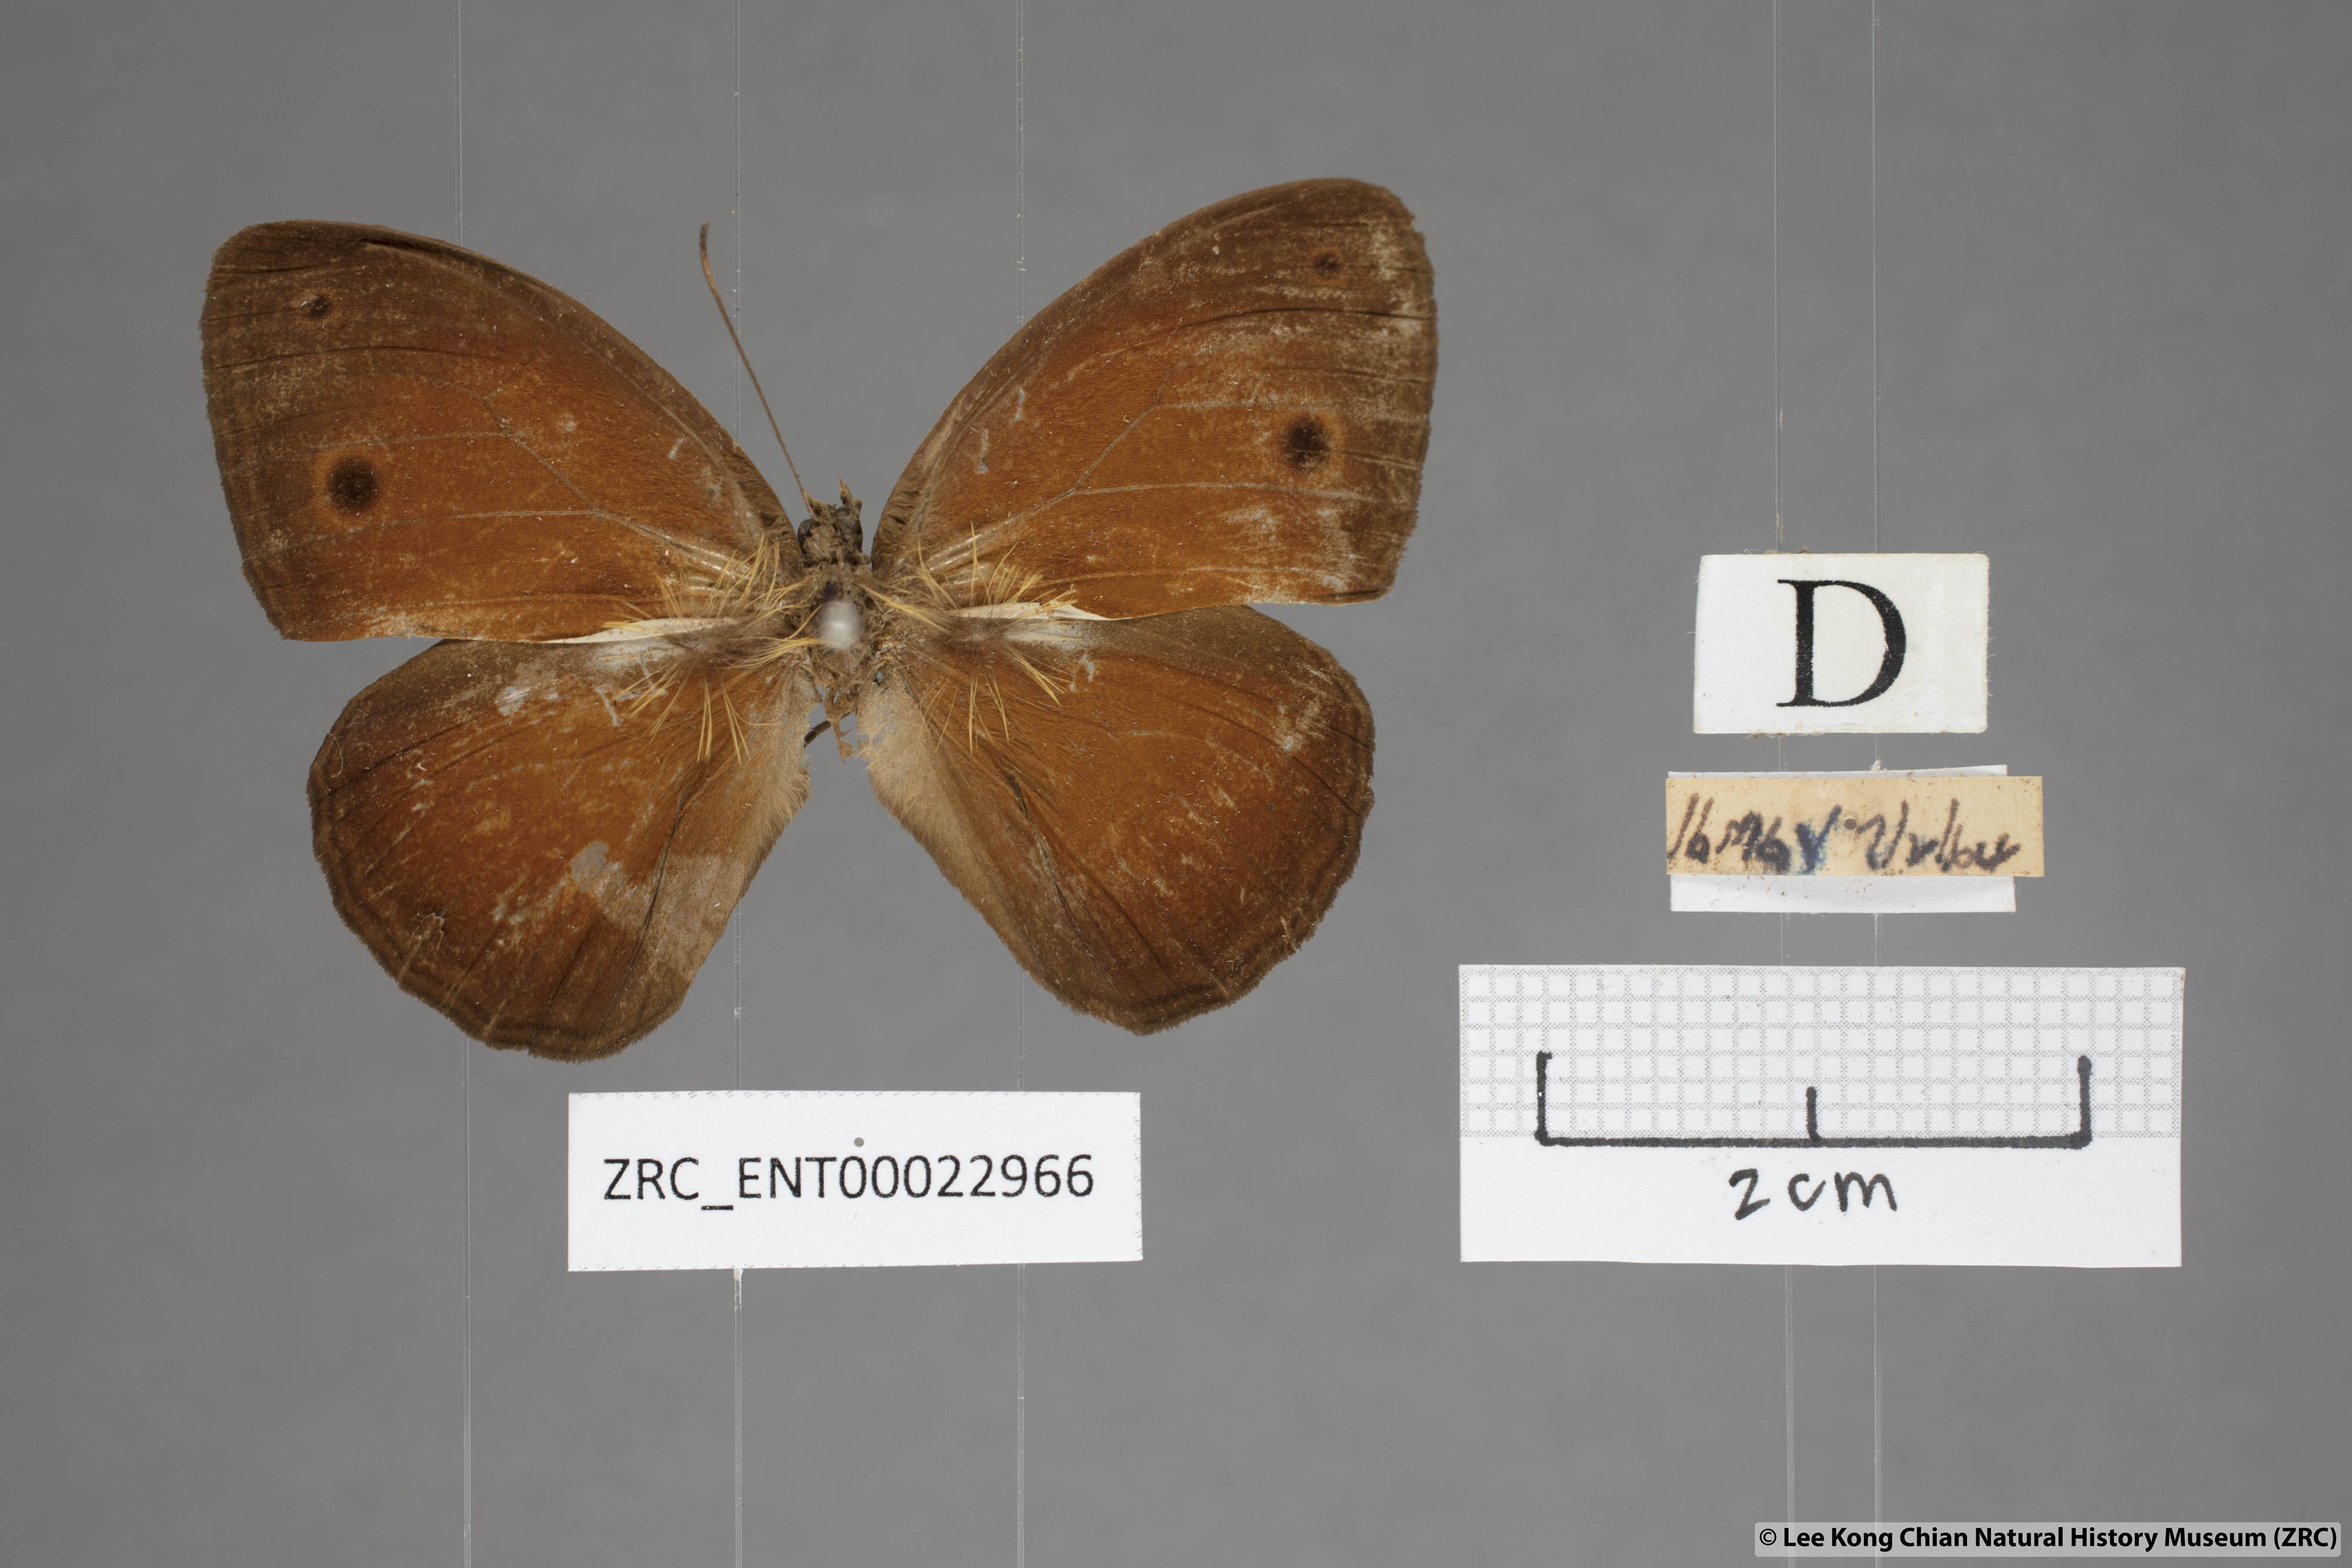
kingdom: Animalia
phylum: Arthropoda
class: Insecta
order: Lepidoptera
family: Nymphalidae
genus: Mycalesis
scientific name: Mycalesis oroatis
